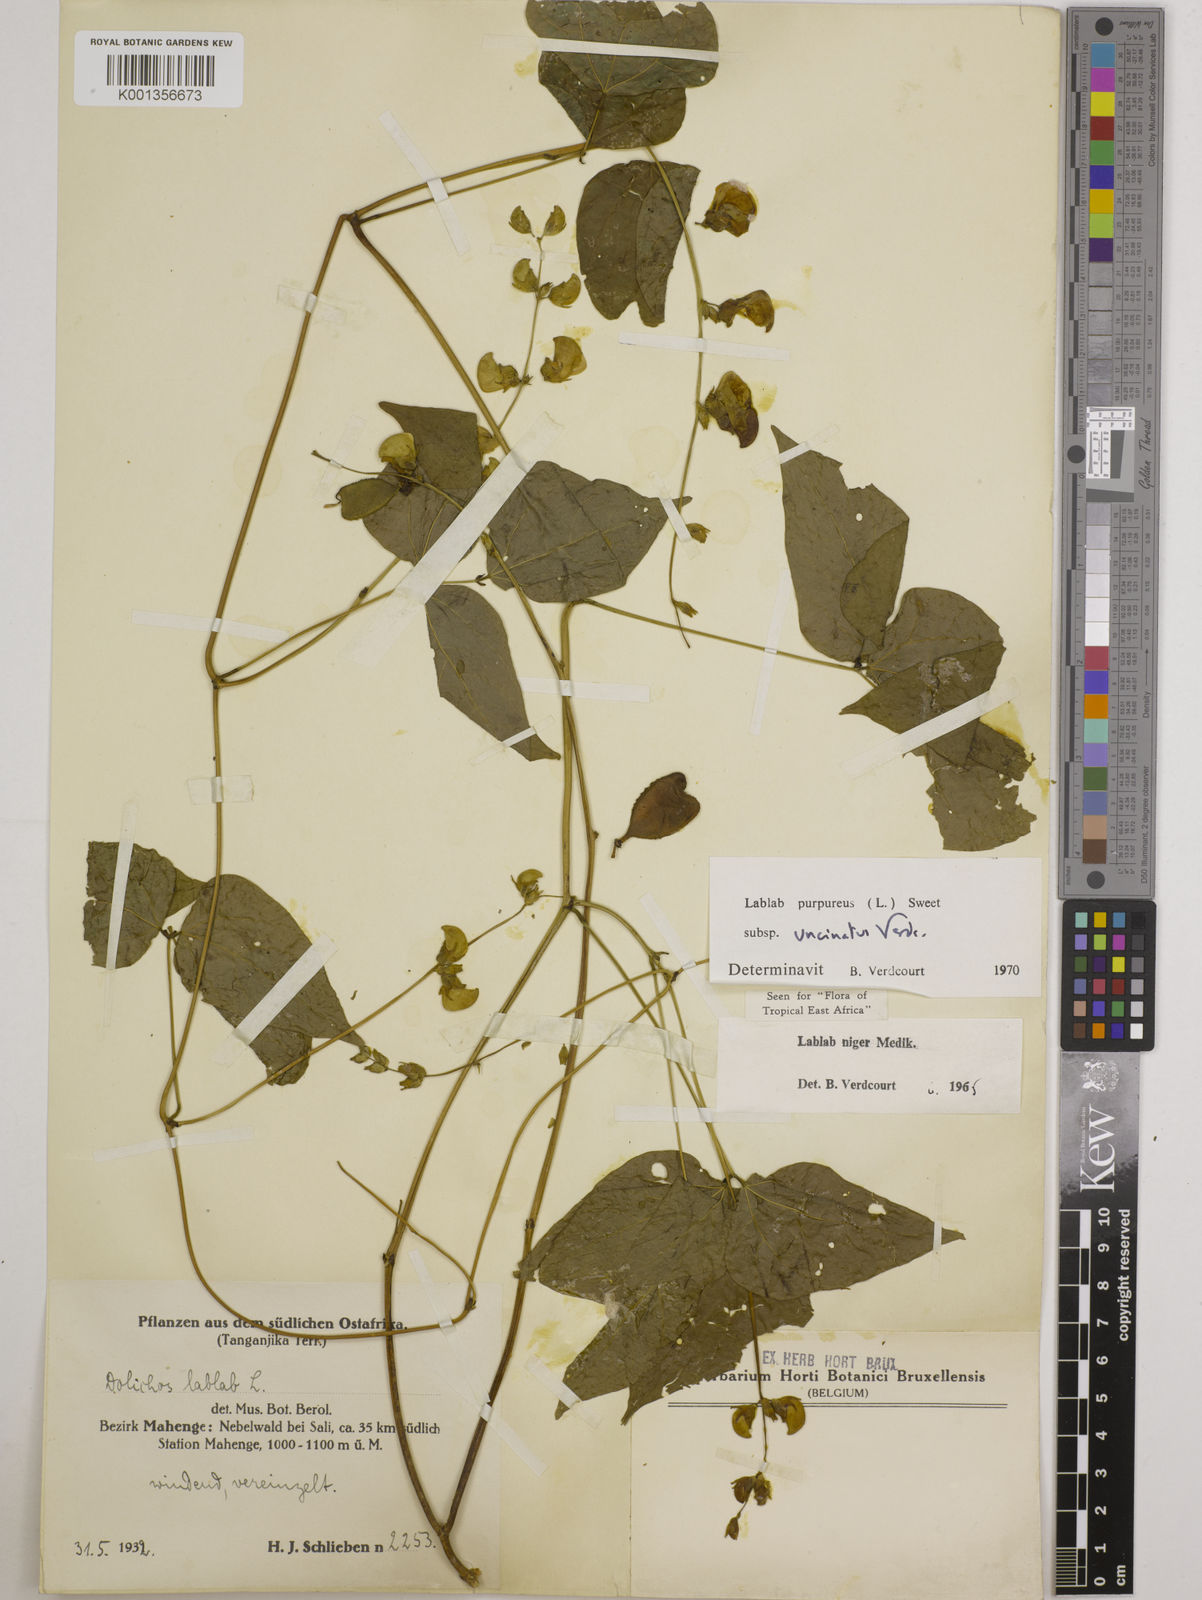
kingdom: Plantae
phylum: Tracheophyta
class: Magnoliopsida
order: Fabales
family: Fabaceae
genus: Lablab
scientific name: Lablab purpureus
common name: Lablab-bean
